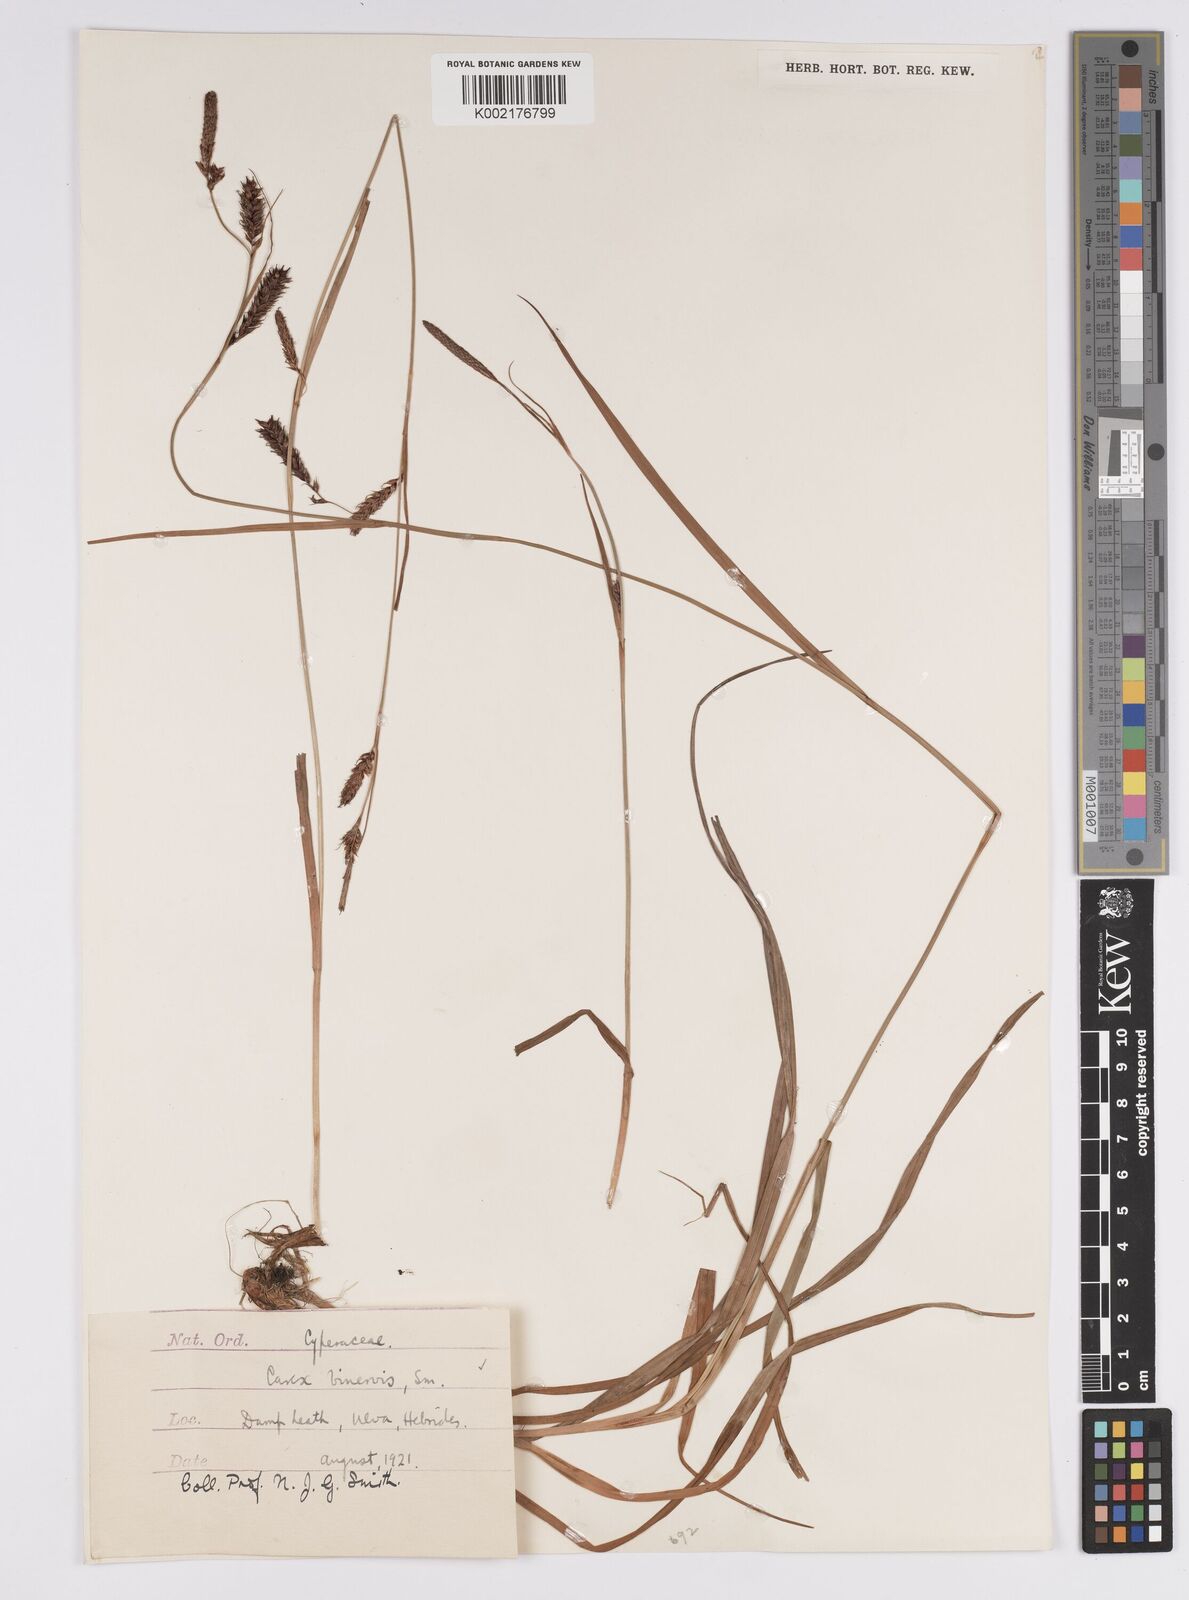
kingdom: Plantae
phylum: Tracheophyta
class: Liliopsida
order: Poales
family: Cyperaceae
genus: Carex
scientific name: Carex binervis
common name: Green-ribbed sedge
